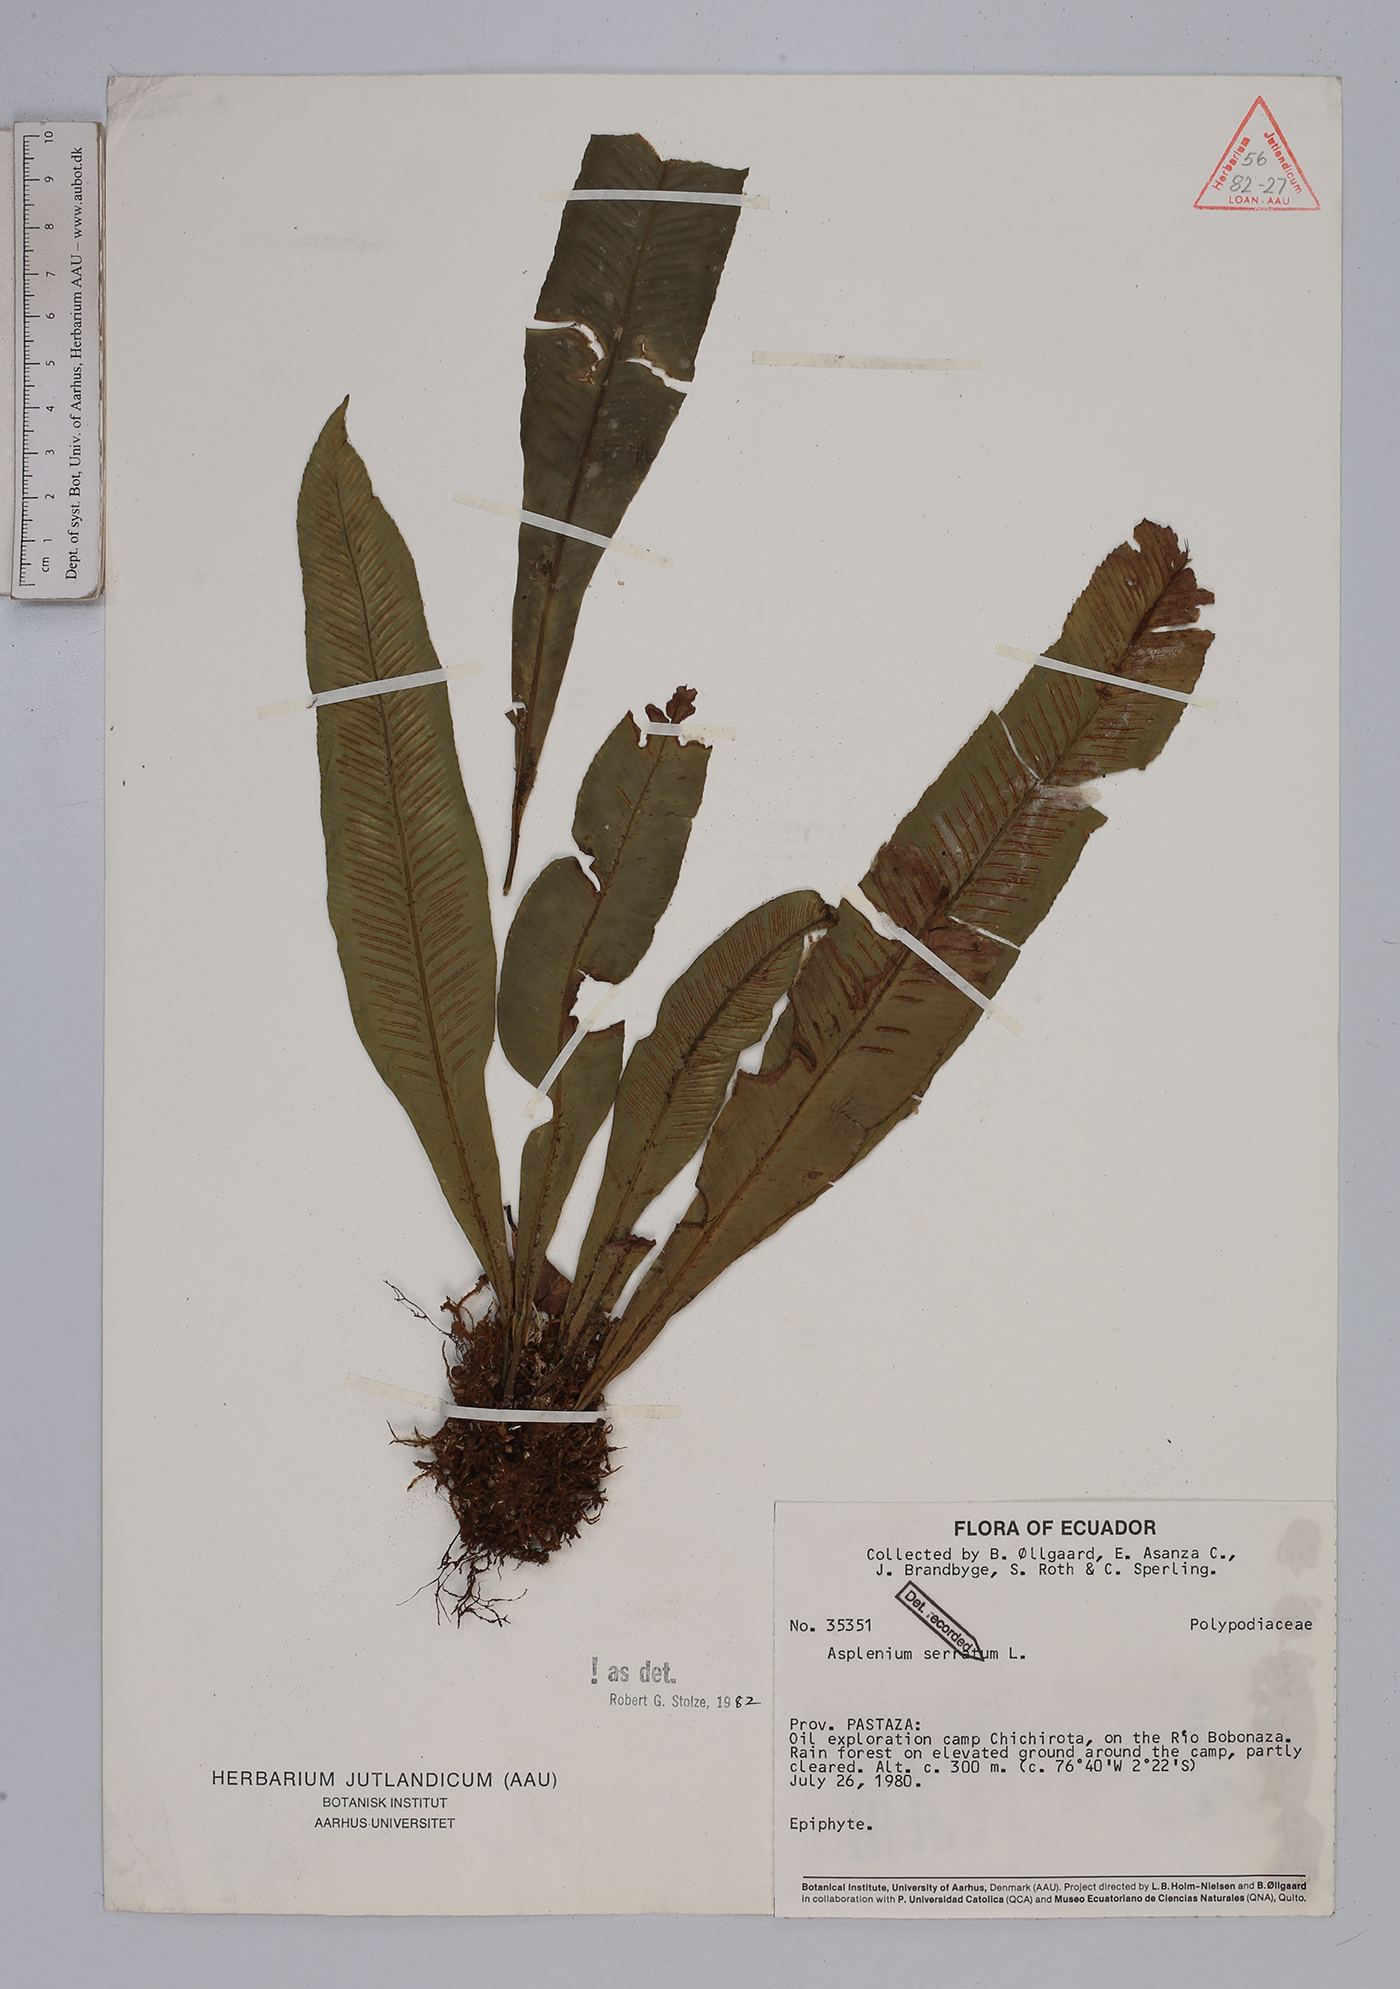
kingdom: Plantae
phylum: Tracheophyta
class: Polypodiopsida
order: Polypodiales
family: Aspleniaceae
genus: Asplenium
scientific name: Asplenium serratum
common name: Wild birdnest fern
